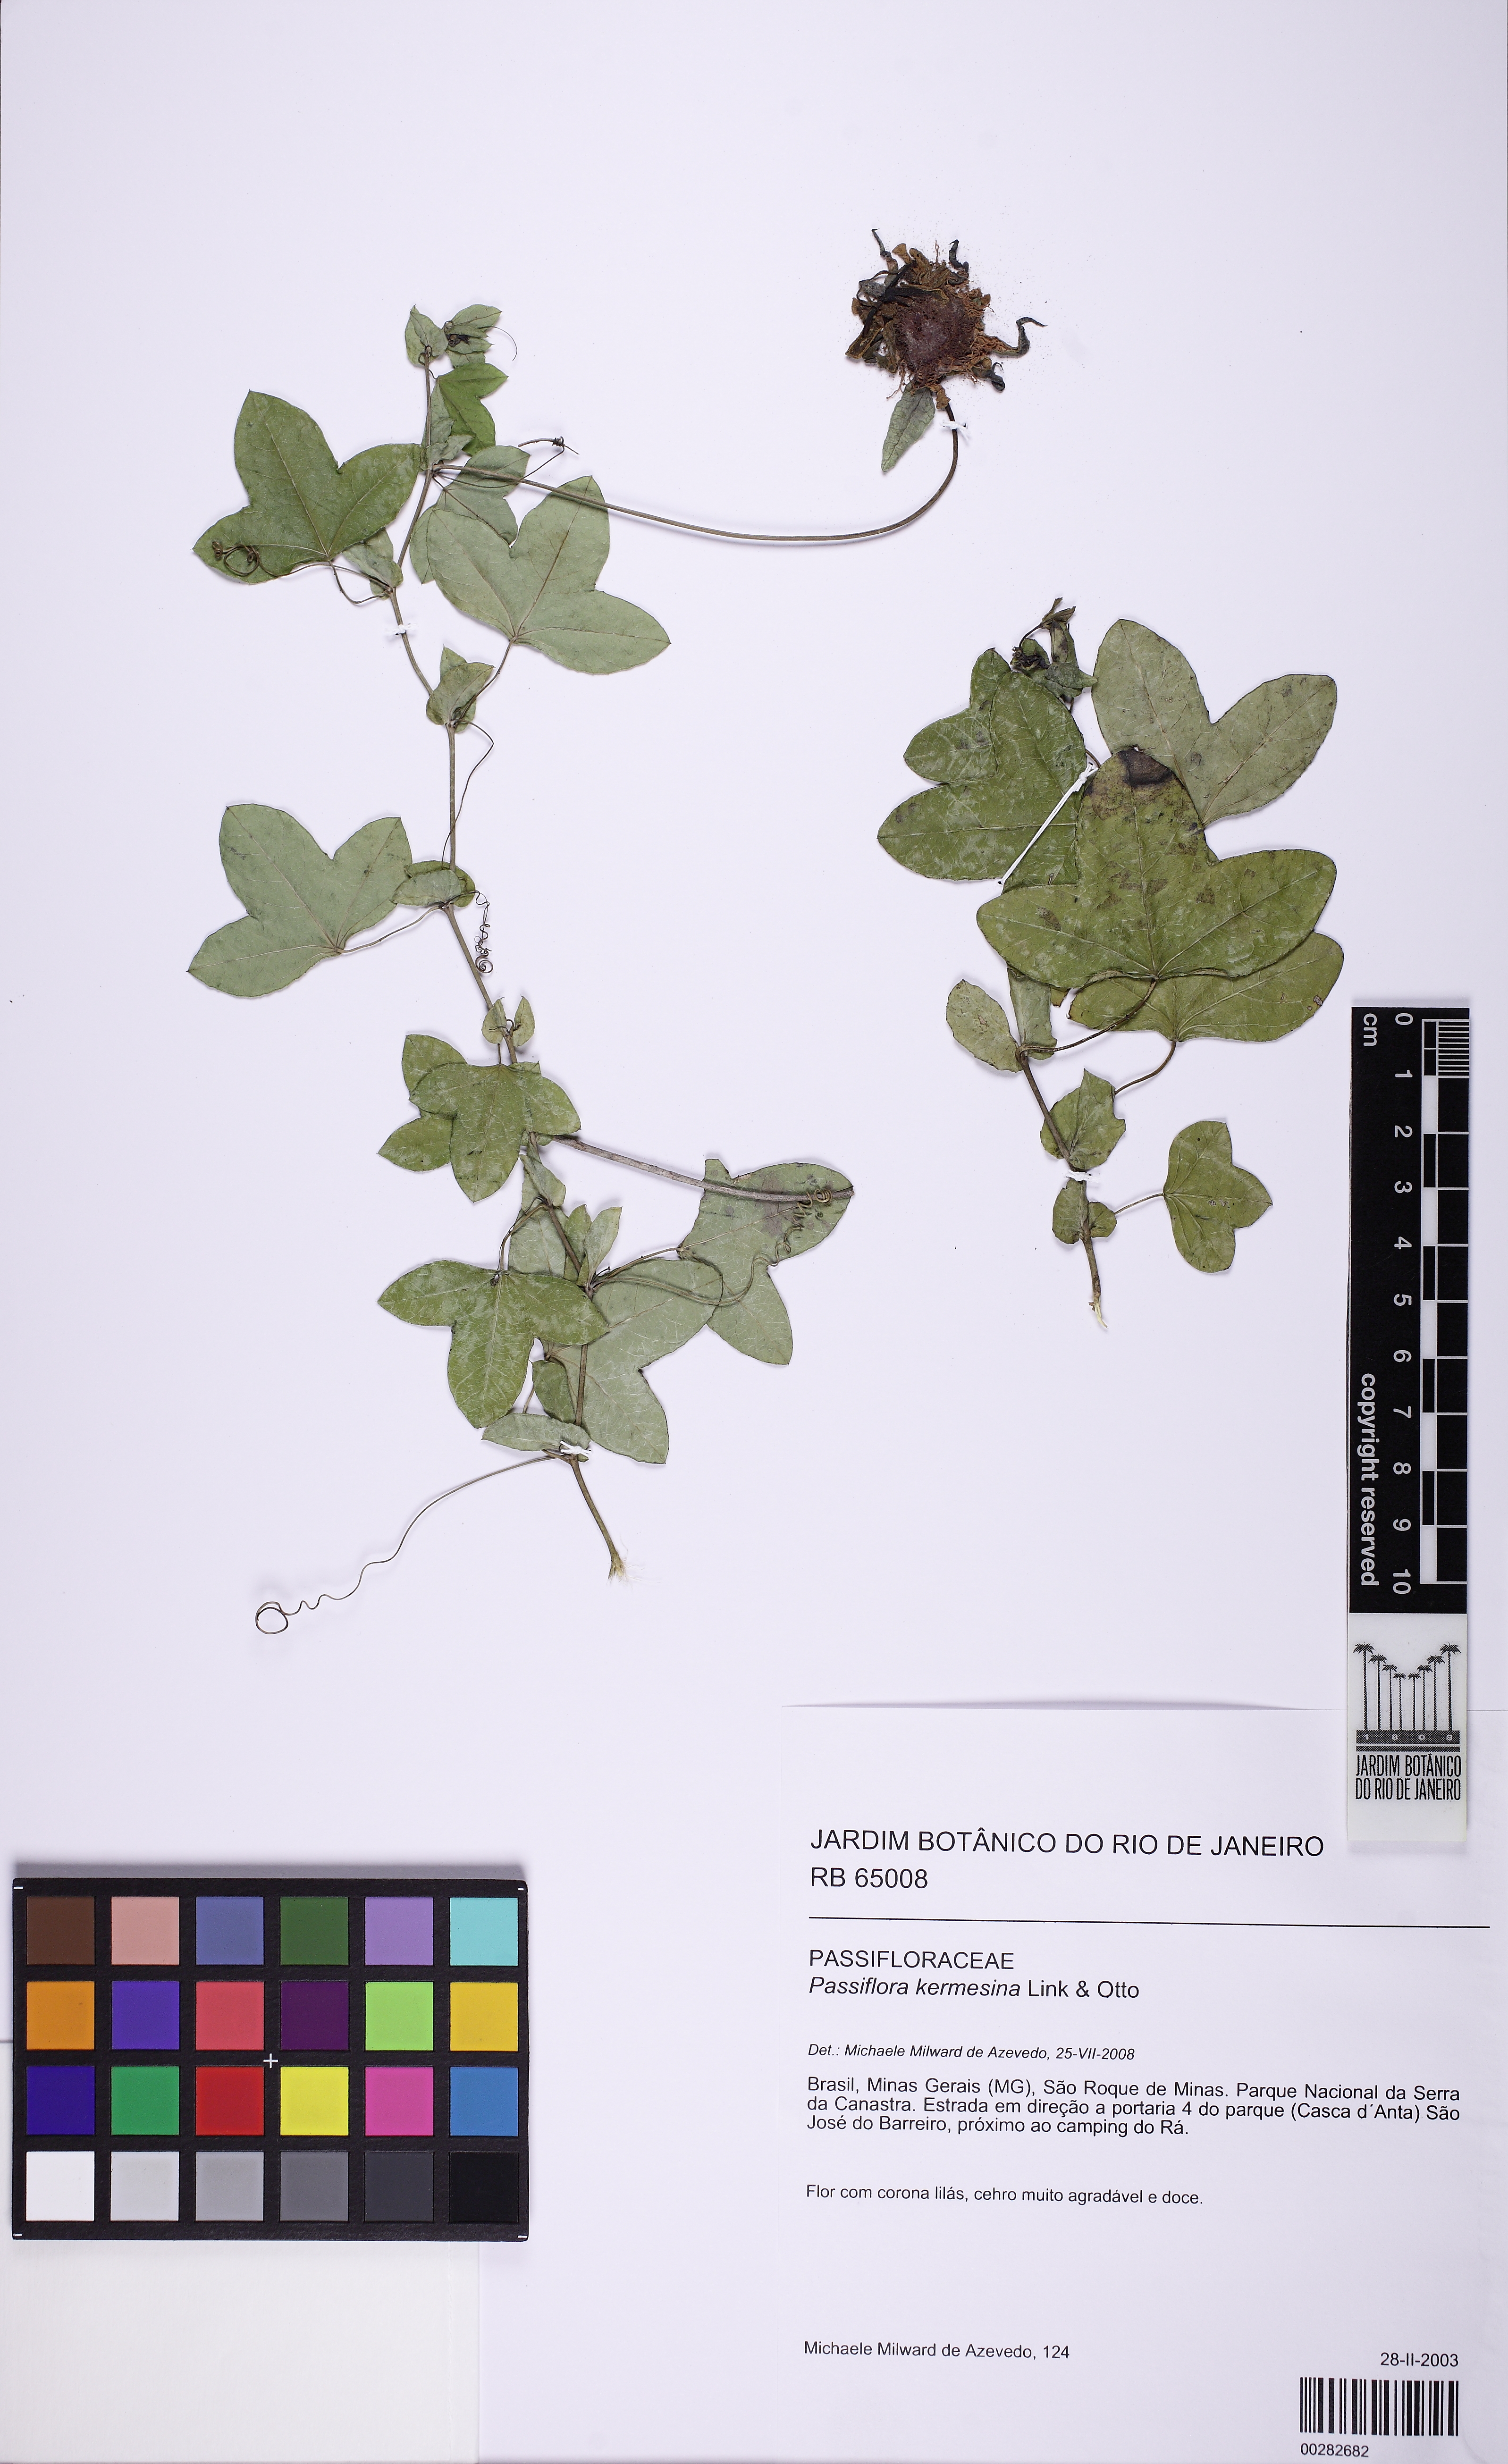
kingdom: Plantae
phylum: Tracheophyta
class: Magnoliopsida
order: Malpighiales
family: Passifloraceae
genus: Passiflora
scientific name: Passiflora kermesina
